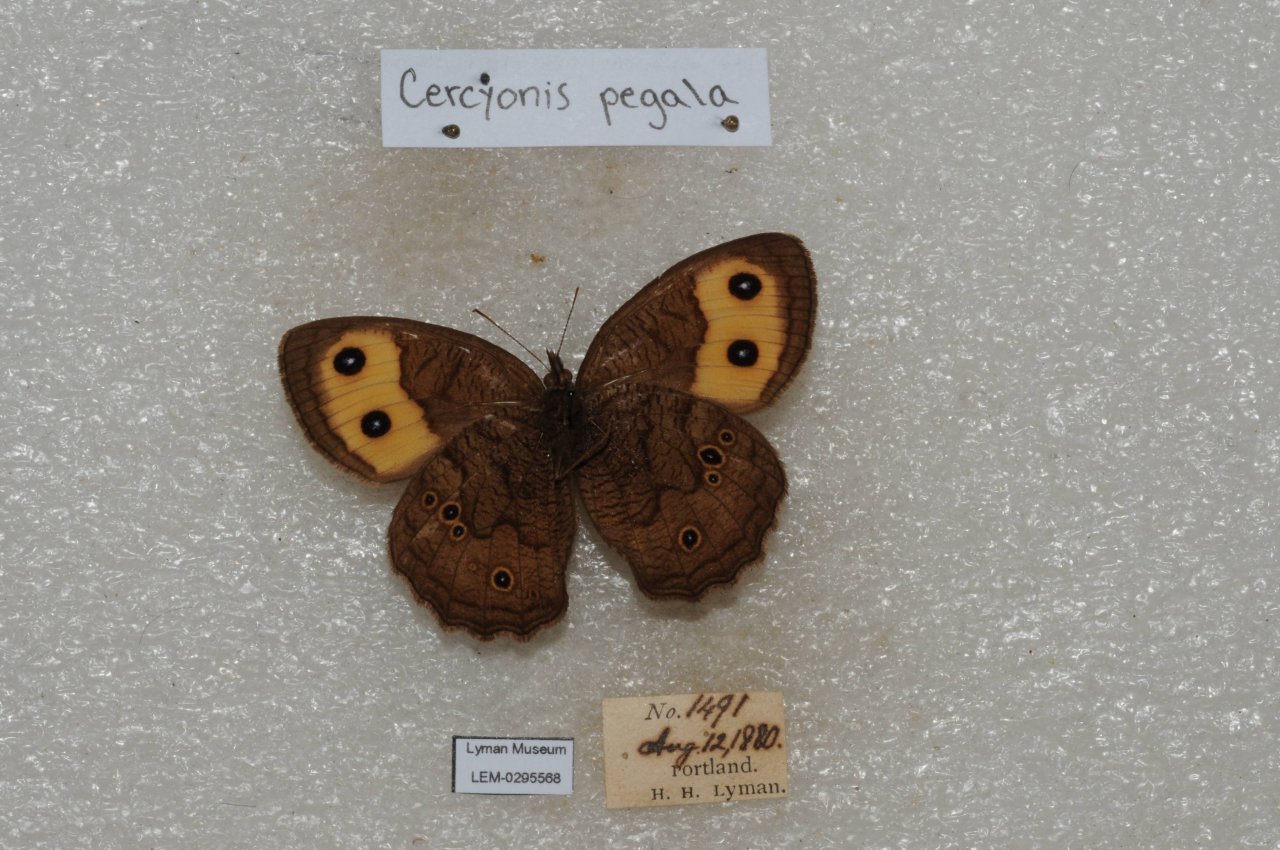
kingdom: Animalia
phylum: Arthropoda
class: Insecta
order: Lepidoptera
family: Nymphalidae
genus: Cercyonis
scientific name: Cercyonis pegala
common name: Common Wood-Nymph
